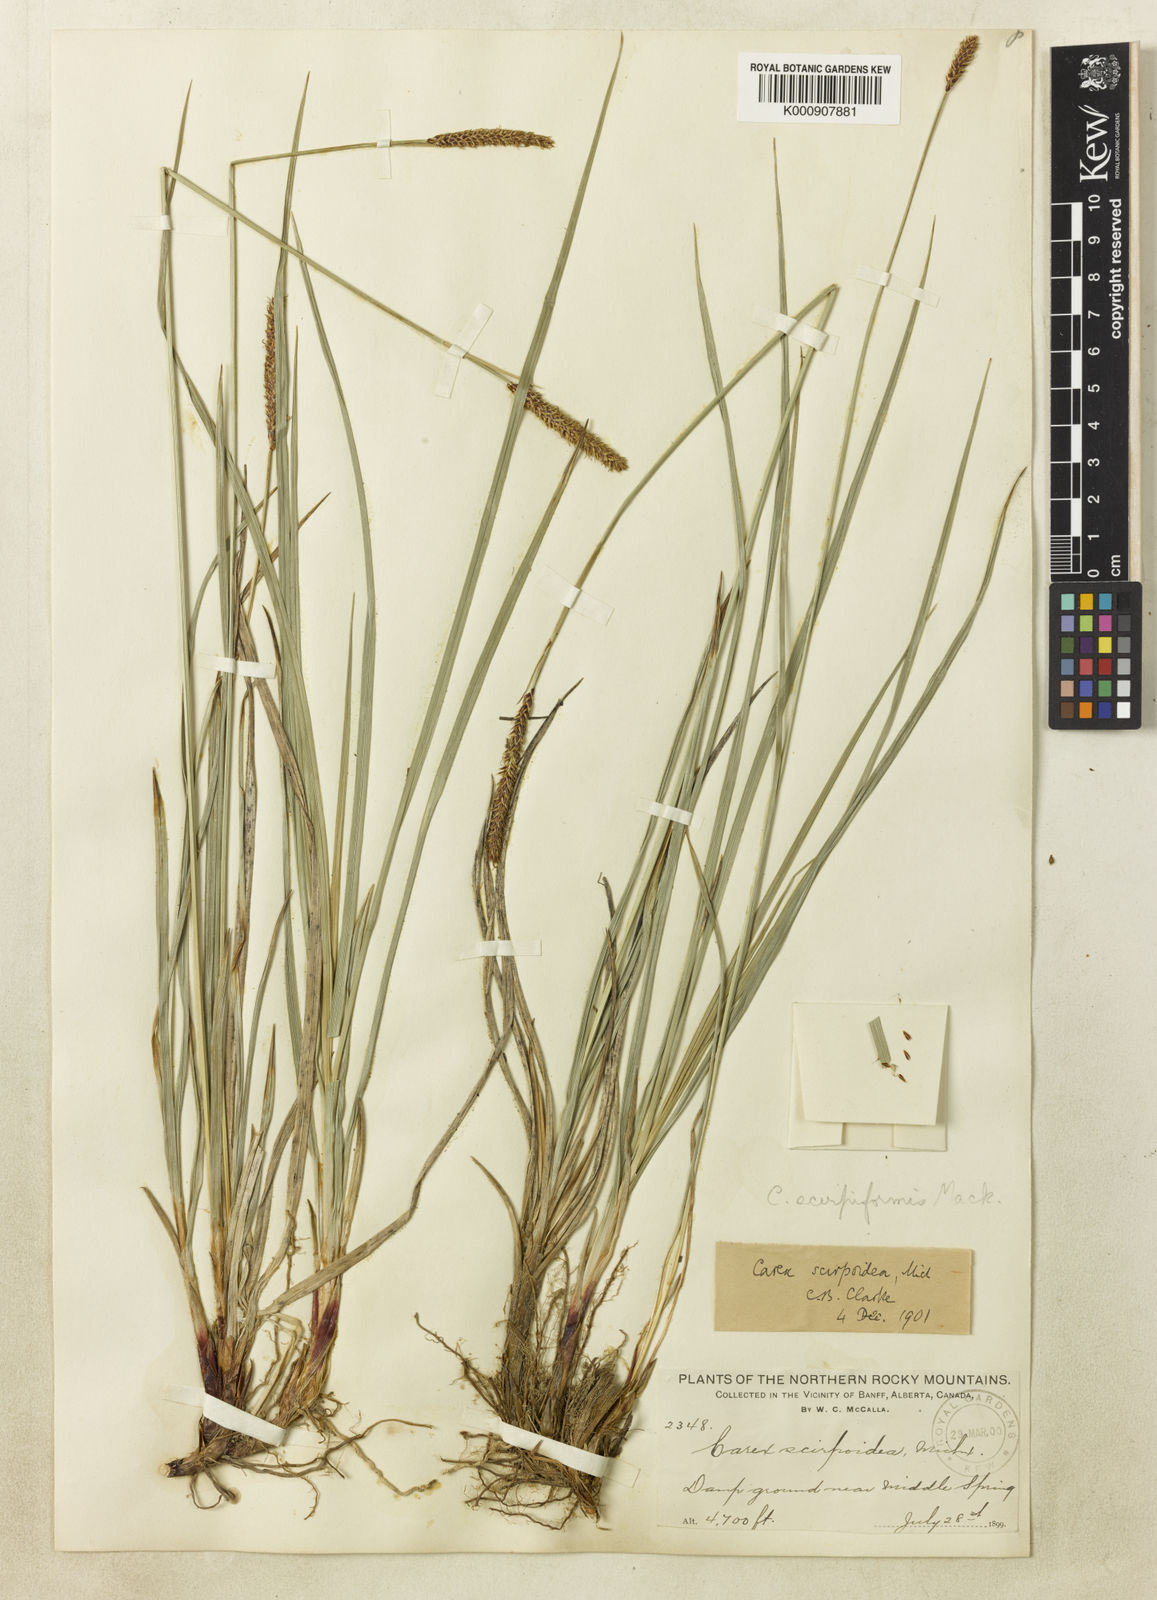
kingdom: Plantae
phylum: Tracheophyta
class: Liliopsida
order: Poales
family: Cyperaceae
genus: Carex
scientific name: Carex scirpoidea
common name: Canada single-spike sedge
